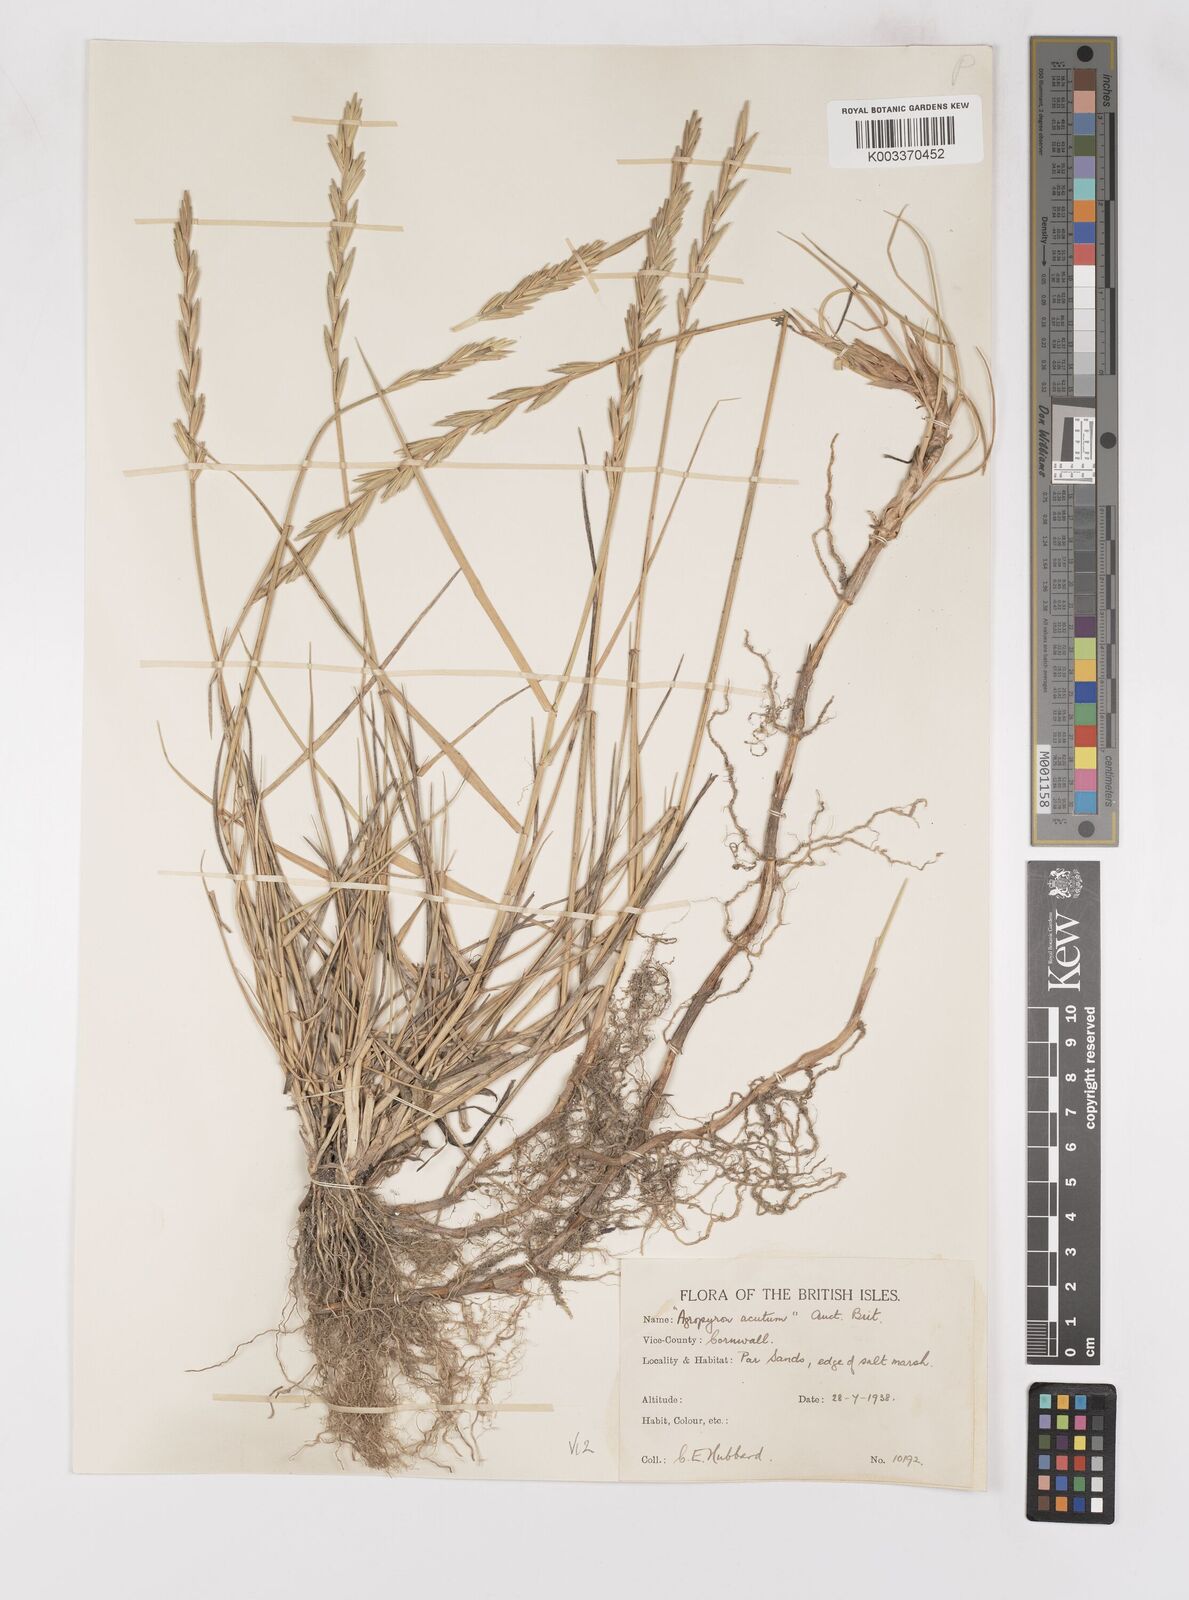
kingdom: Plantae
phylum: Tracheophyta
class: Liliopsida
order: Poales
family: Poaceae
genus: Thinoelymus
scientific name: Thinoelymus obtusiusculus
